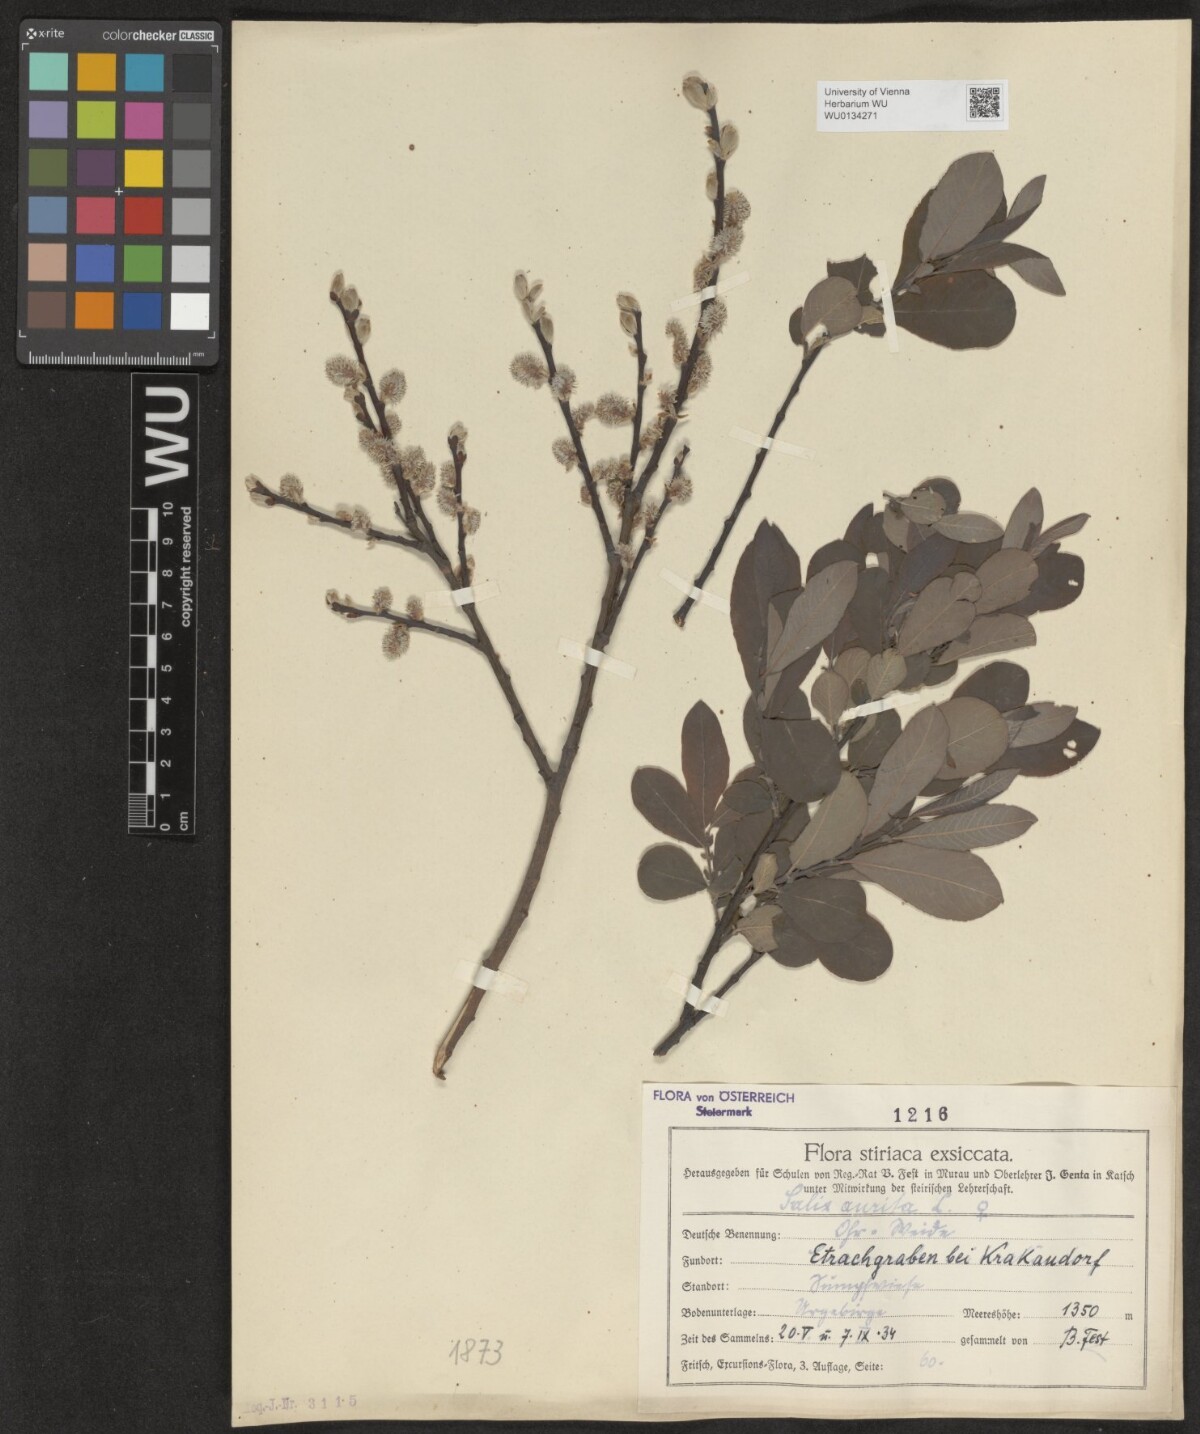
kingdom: Plantae
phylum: Tracheophyta
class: Magnoliopsida
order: Malpighiales
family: Salicaceae
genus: Salix
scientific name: Salix aurita
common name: Eared willow
